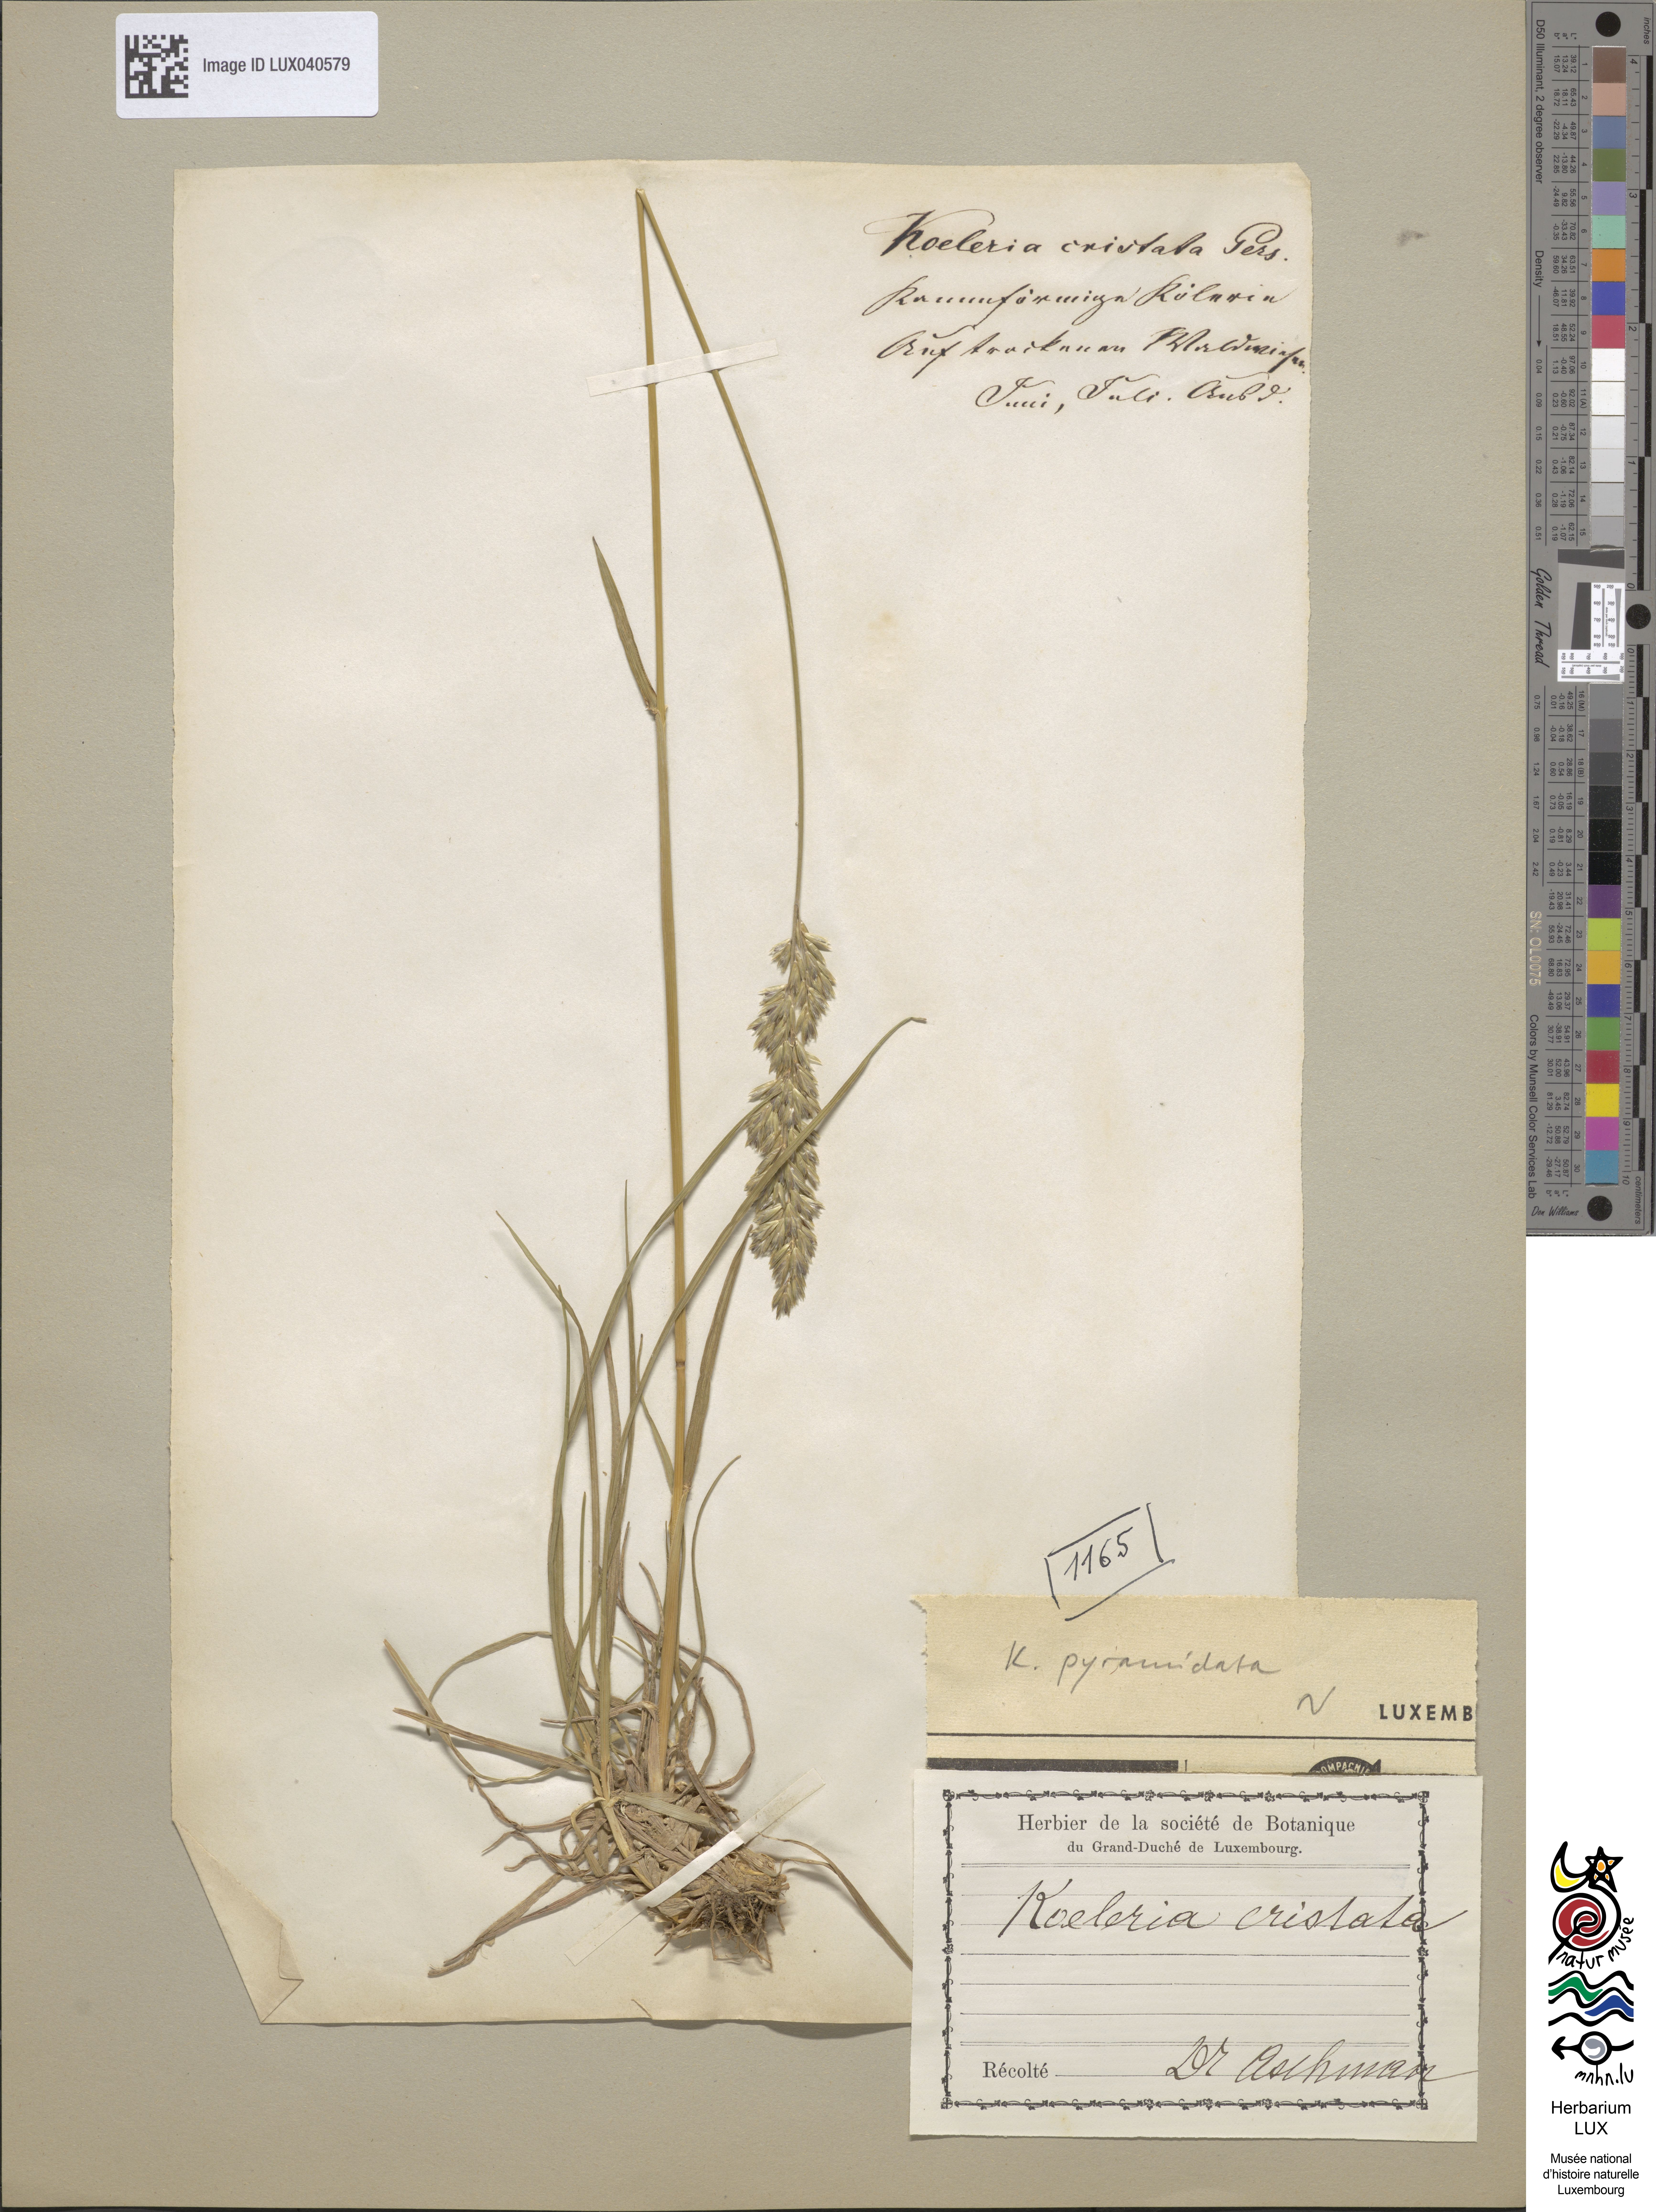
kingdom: Plantae
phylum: Tracheophyta
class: Liliopsida
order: Poales
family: Poaceae
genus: Koeleria
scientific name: Koeleria cristata
